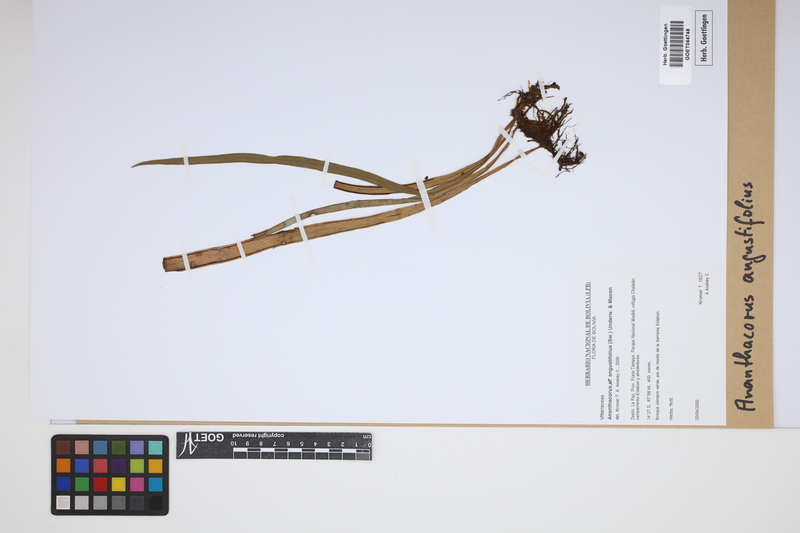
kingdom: Plantae
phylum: Tracheophyta
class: Polypodiopsida
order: Polypodiales
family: Pteridaceae
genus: Ananthacorus
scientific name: Ananthacorus angustifolius
